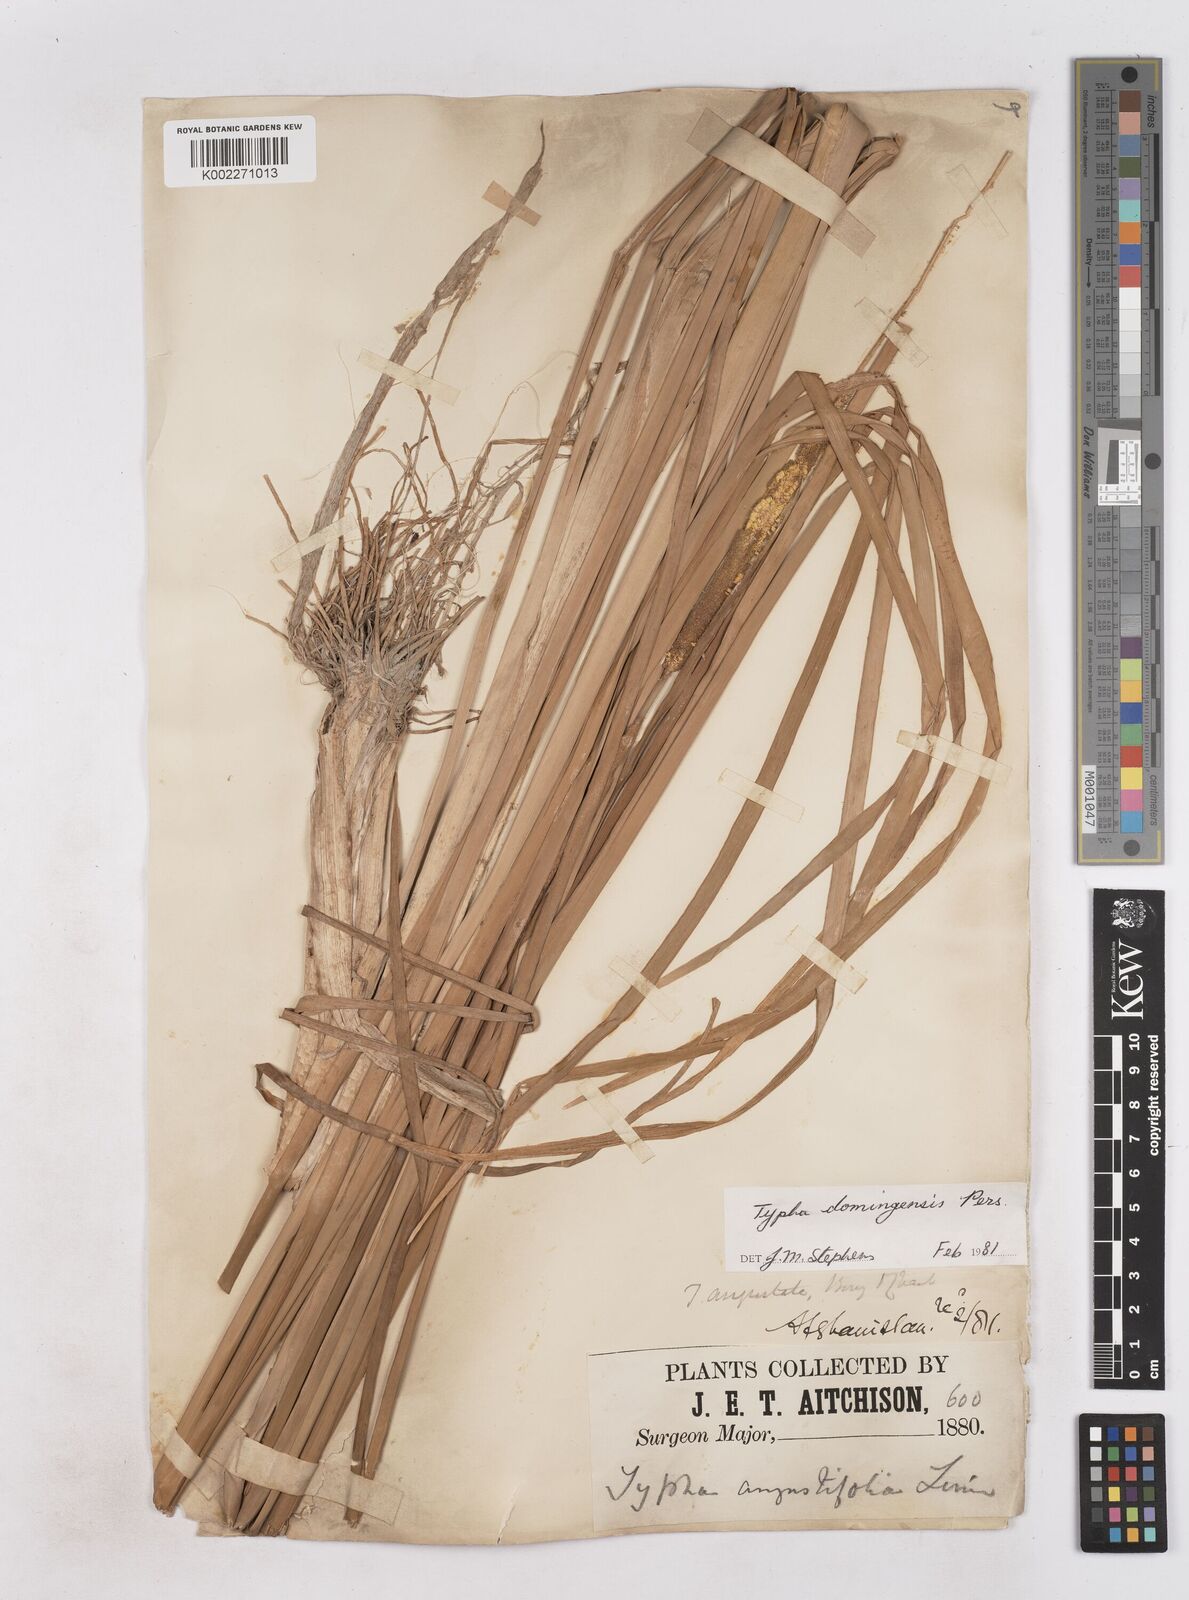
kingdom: Plantae
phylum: Tracheophyta
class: Liliopsida
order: Poales
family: Typhaceae
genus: Typha
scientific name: Typha domingensis
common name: Southern cattail
